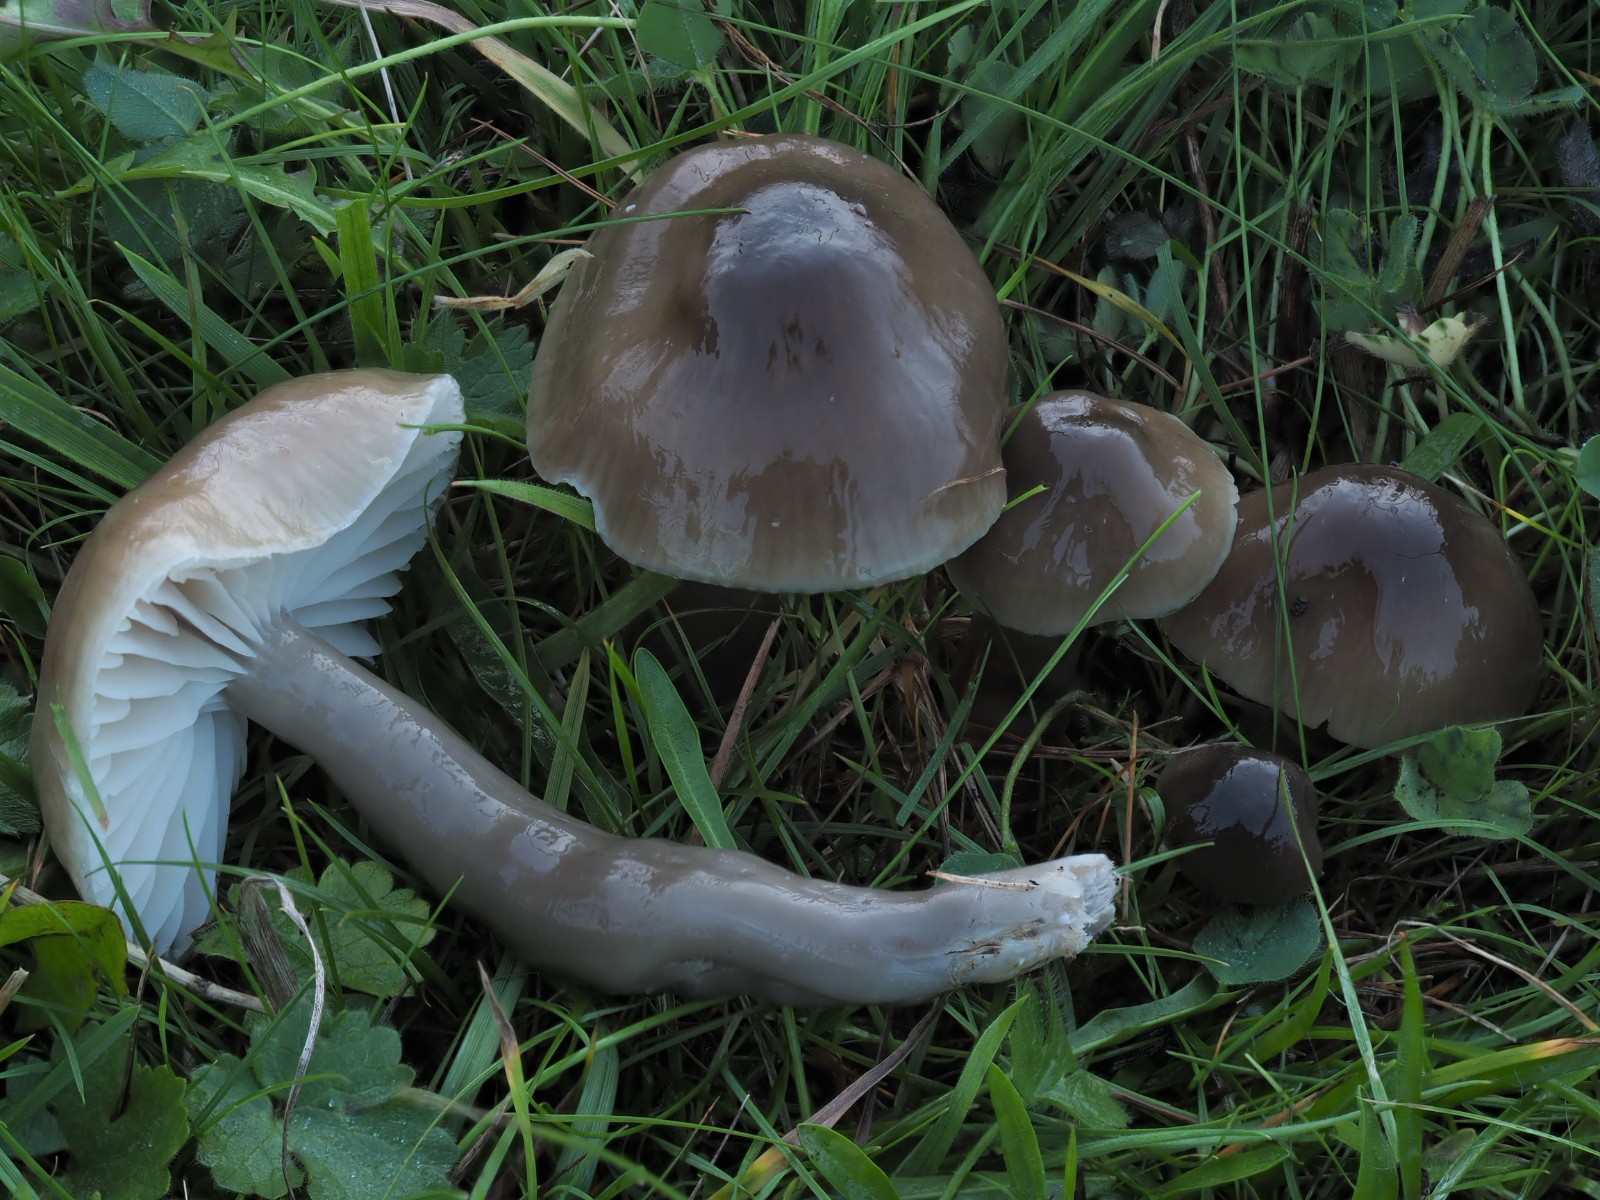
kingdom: Fungi
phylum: Basidiomycota
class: Agaricomycetes
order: Agaricales
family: Hygrophoraceae
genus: Gliophorus
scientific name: Gliophorus irrigatus
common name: slimet vokshat
